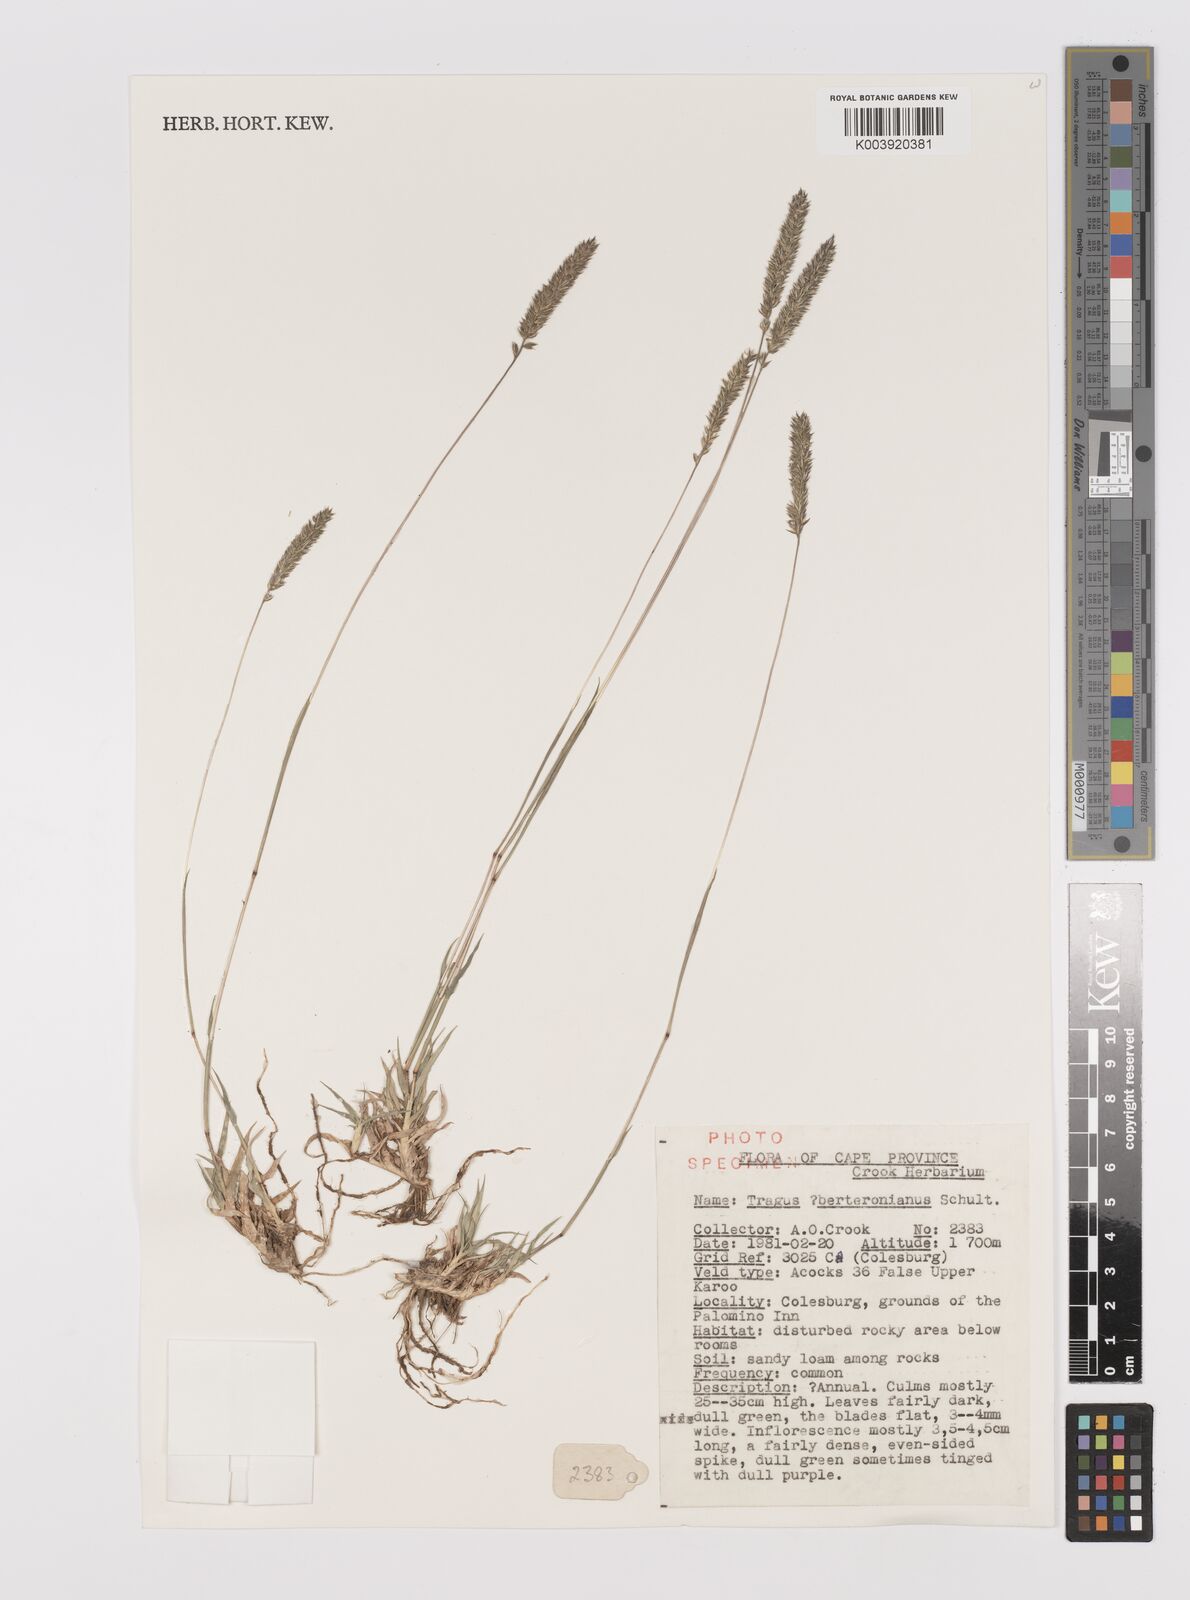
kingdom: Plantae
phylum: Tracheophyta
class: Liliopsida
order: Poales
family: Poaceae
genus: Tragus
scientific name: Tragus berteronianus
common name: African bur-grass
